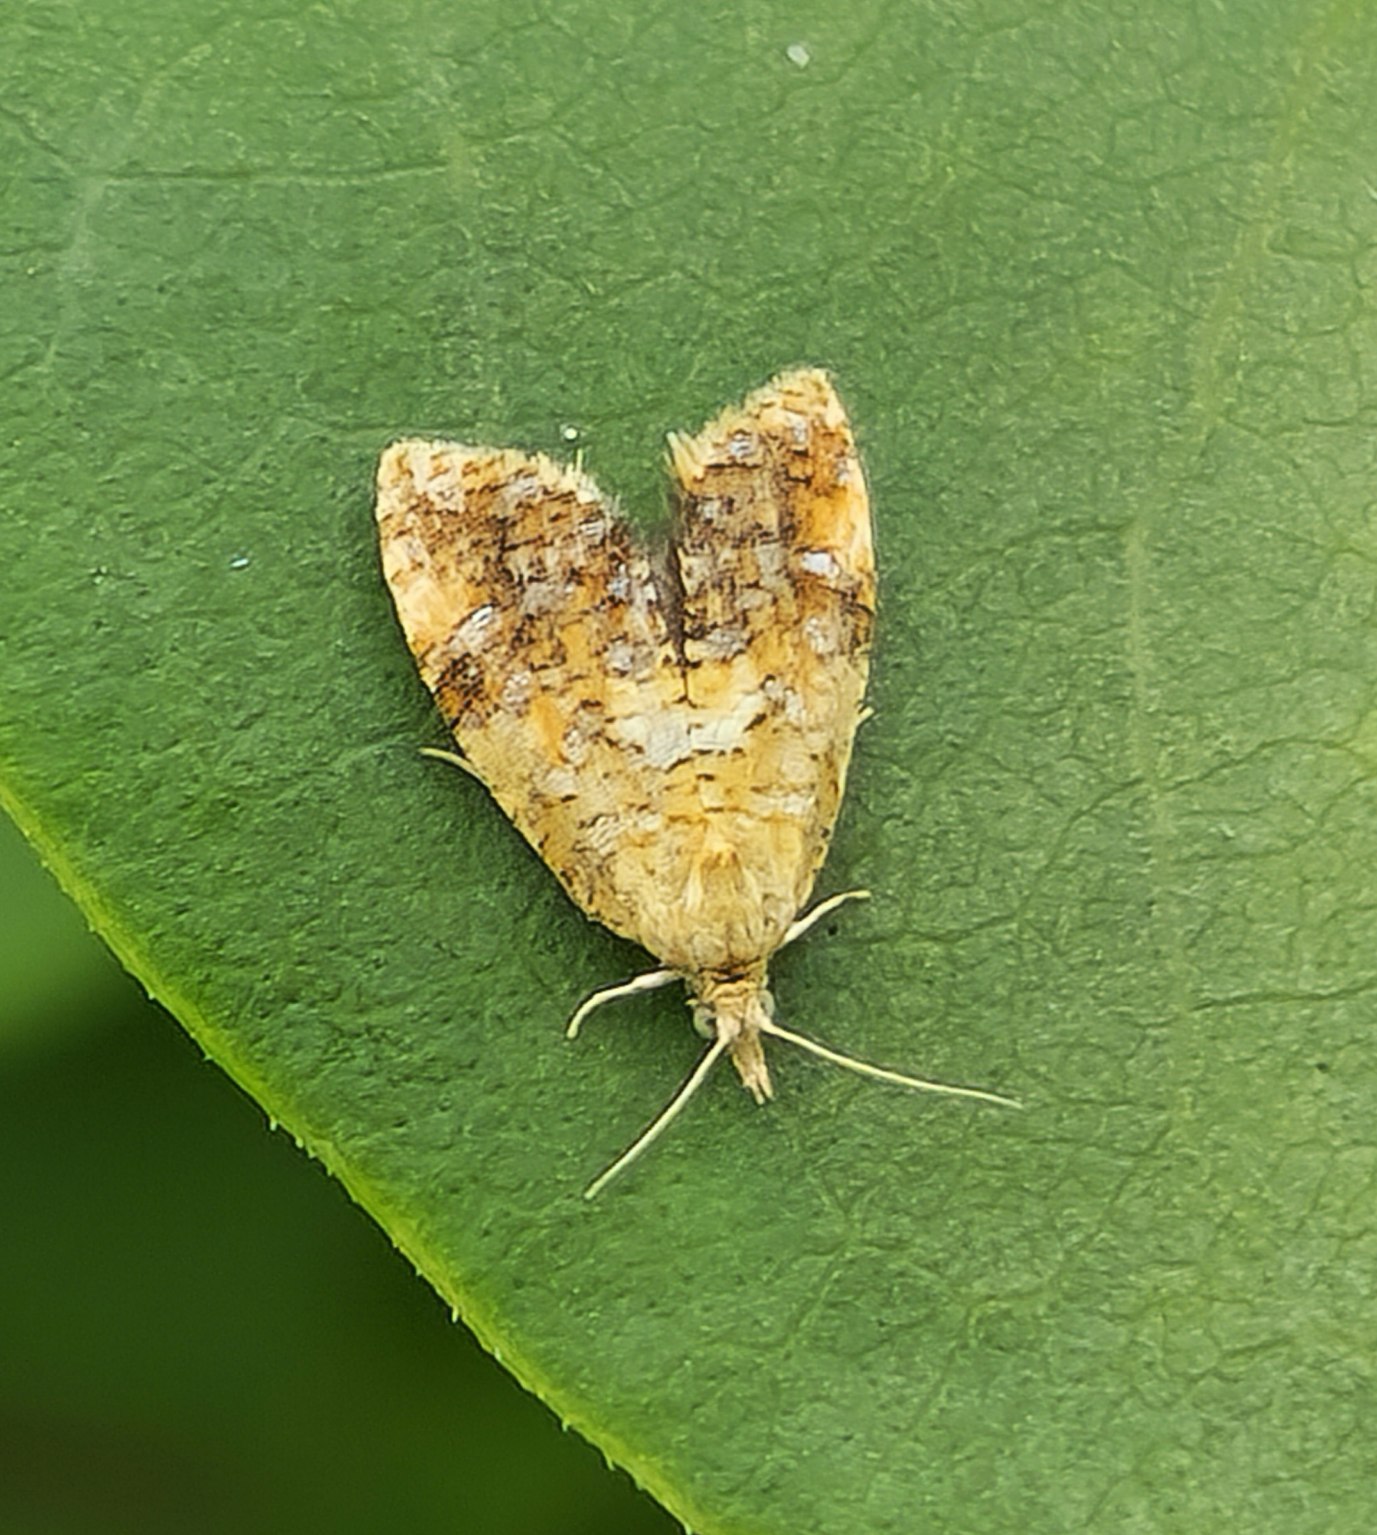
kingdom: Animalia
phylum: Arthropoda
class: Insecta
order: Lepidoptera
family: Tortricidae
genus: Pseudargyrotoza
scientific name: Pseudargyrotoza conwagana
